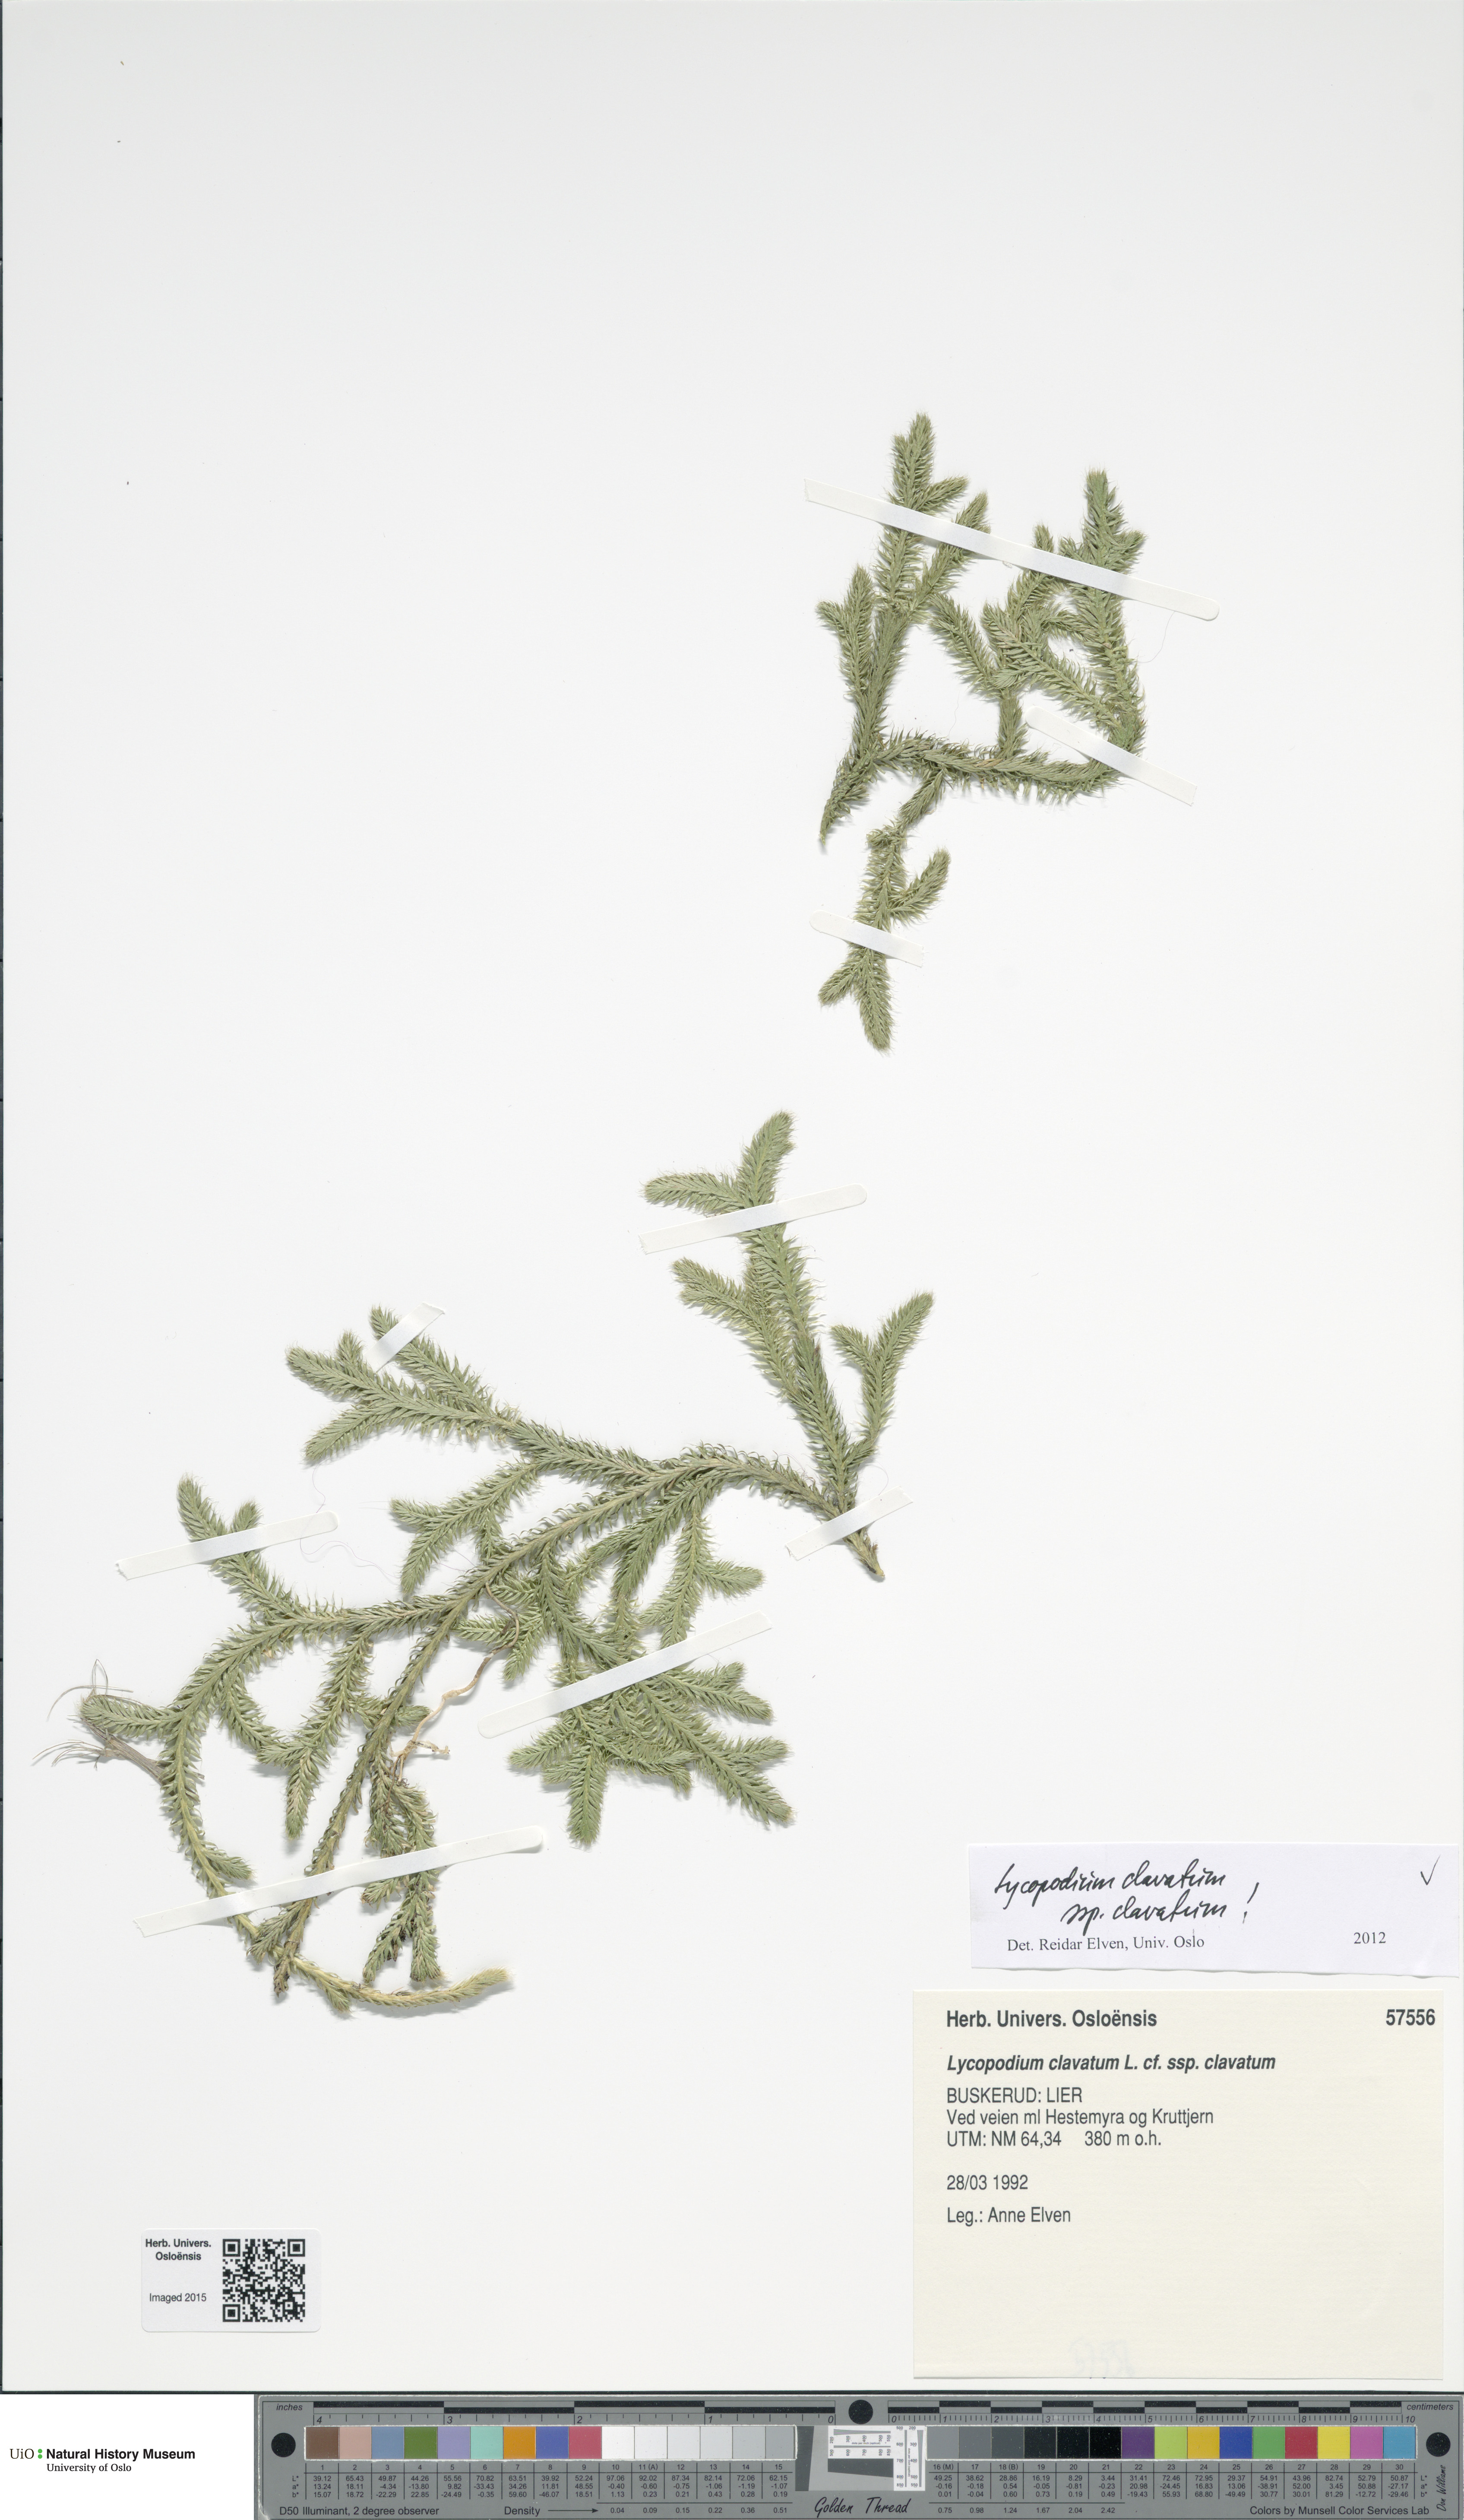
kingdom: Plantae
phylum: Tracheophyta
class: Lycopodiopsida
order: Lycopodiales
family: Lycopodiaceae
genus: Lycopodium
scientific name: Lycopodium clavatum
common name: Stag's-horn clubmoss
